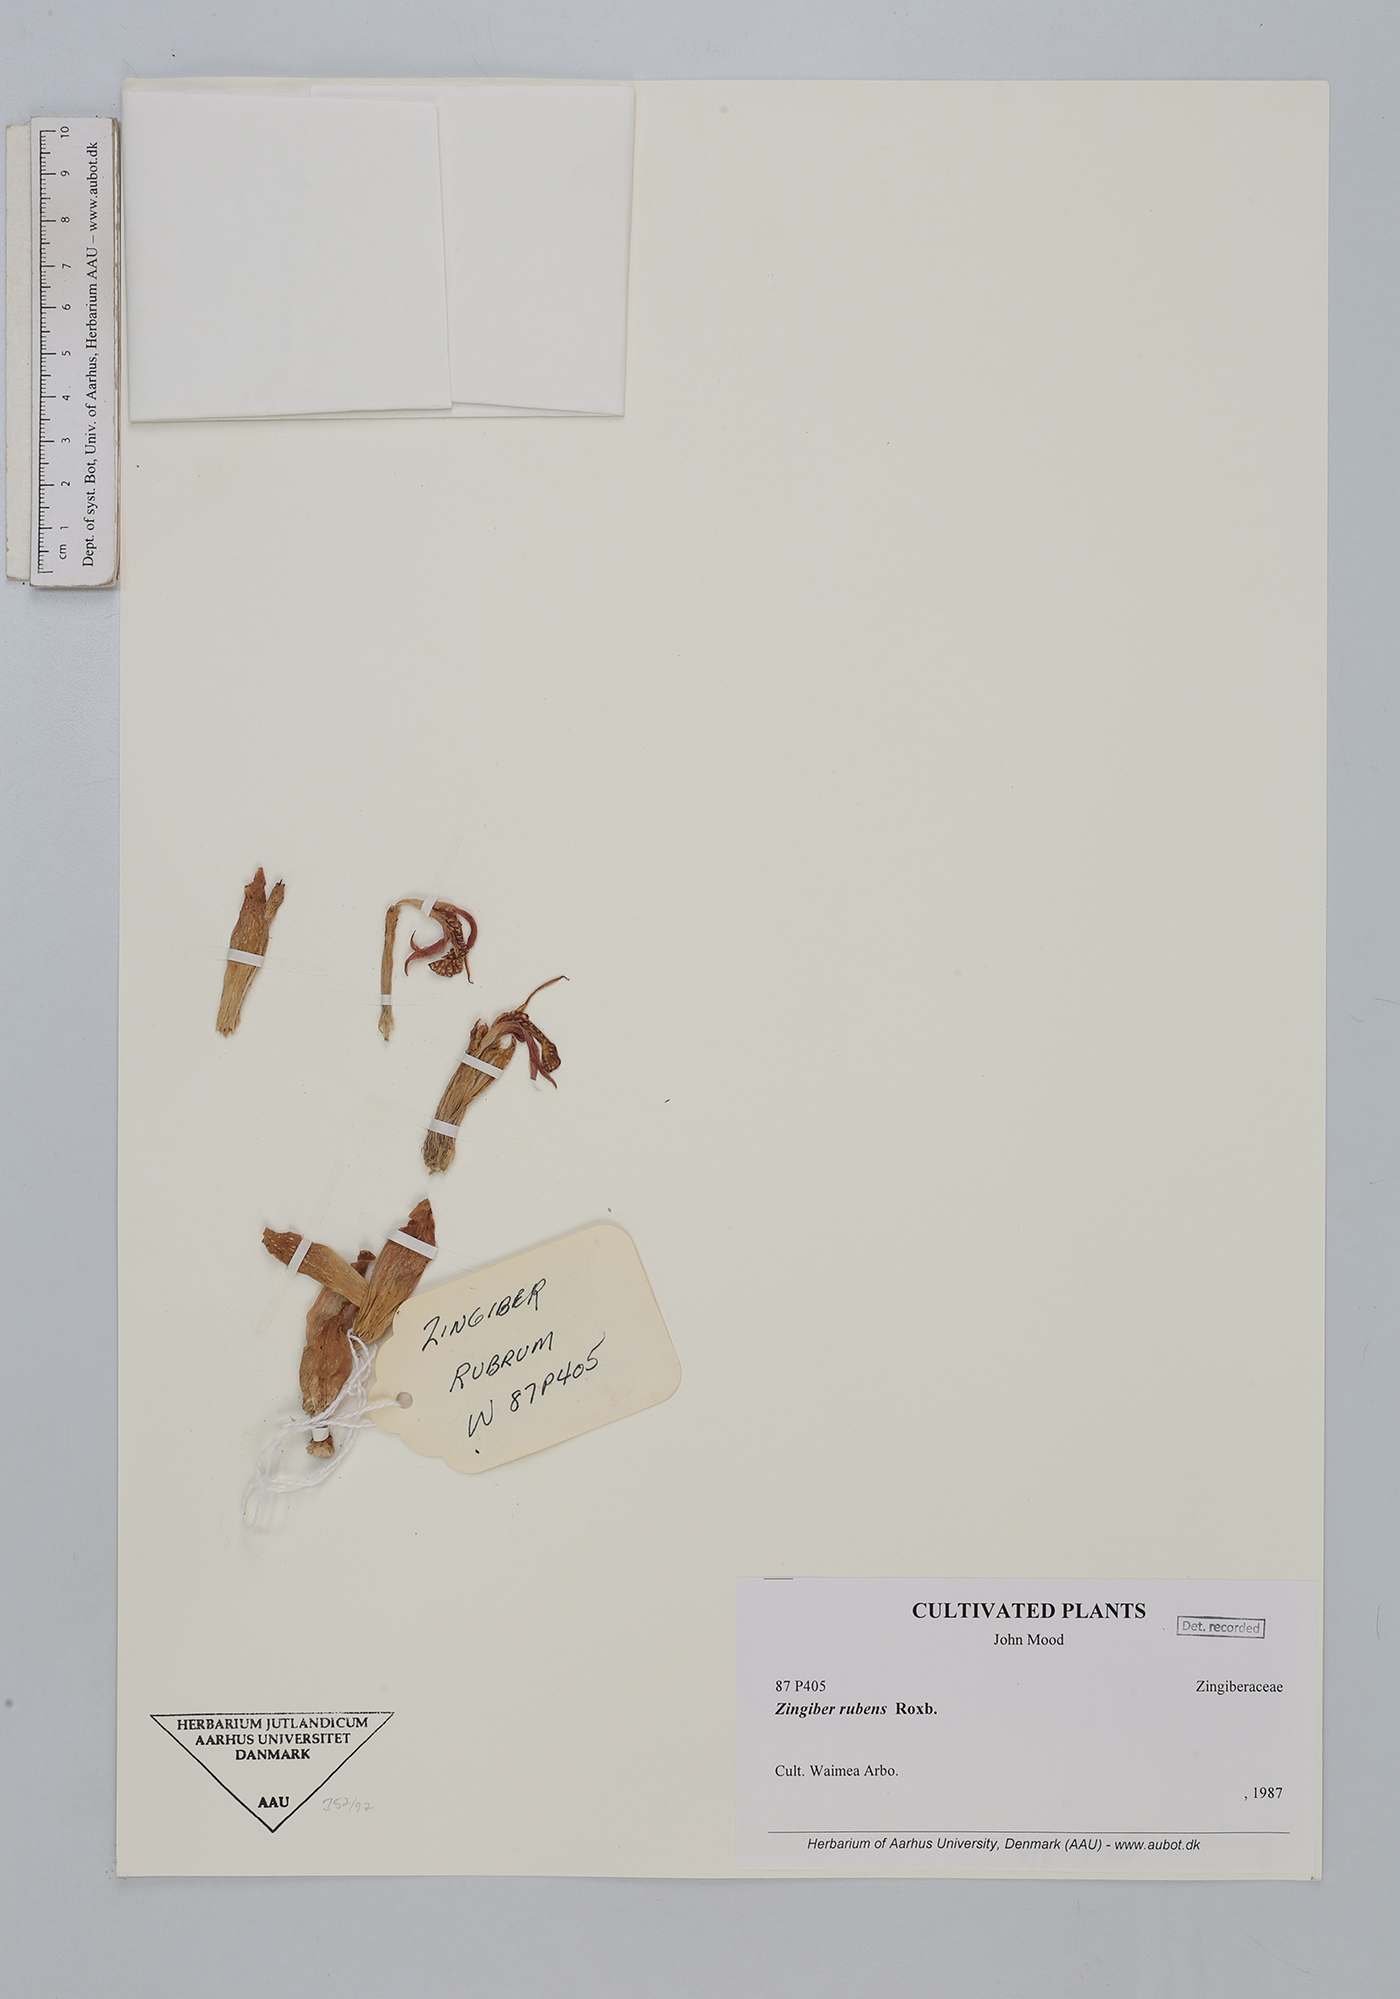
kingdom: Plantae
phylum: Tracheophyta
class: Liliopsida
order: Zingiberales
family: Zingiberaceae
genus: Zingiber
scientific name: Zingiber rubens
